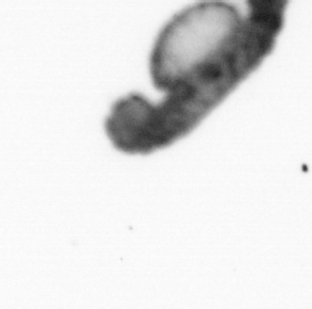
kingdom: Animalia
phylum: Annelida
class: Polychaeta
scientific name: Polychaeta
